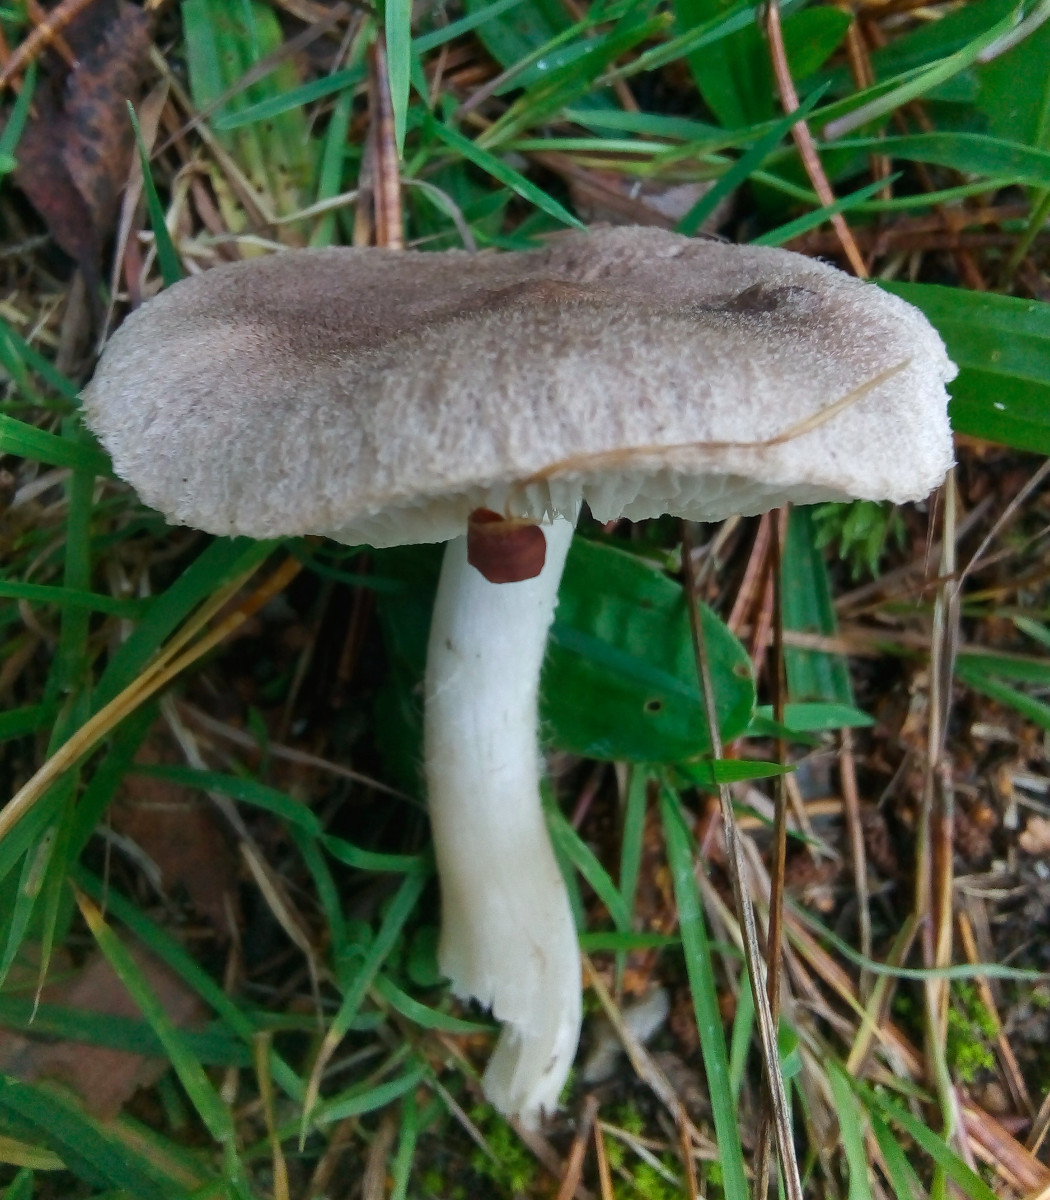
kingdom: Fungi
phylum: Basidiomycota
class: Agaricomycetes
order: Agaricales
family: Tricholomataceae
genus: Tricholoma
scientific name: Tricholoma terreum
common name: jordfarvet ridderhat
